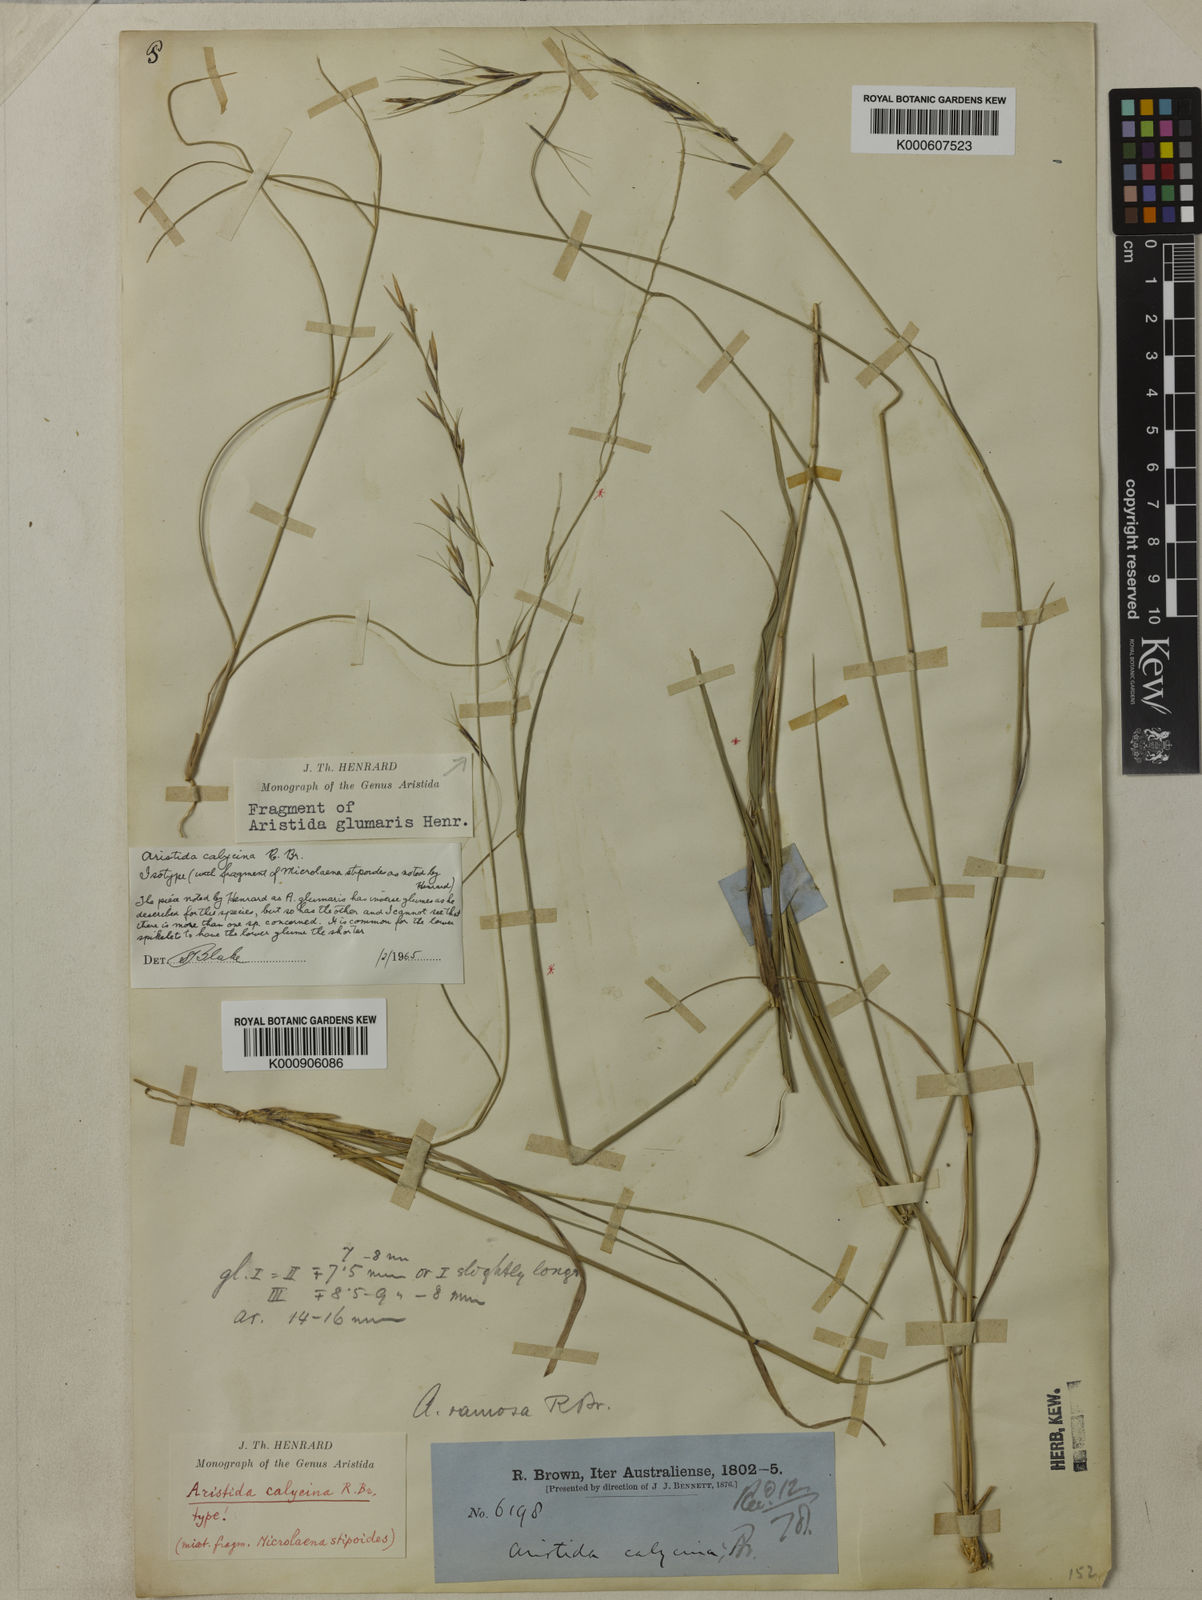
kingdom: Plantae
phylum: Tracheophyta
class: Liliopsida
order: Poales
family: Poaceae
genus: Aristida
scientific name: Aristida calycina
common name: Dark wire grass
